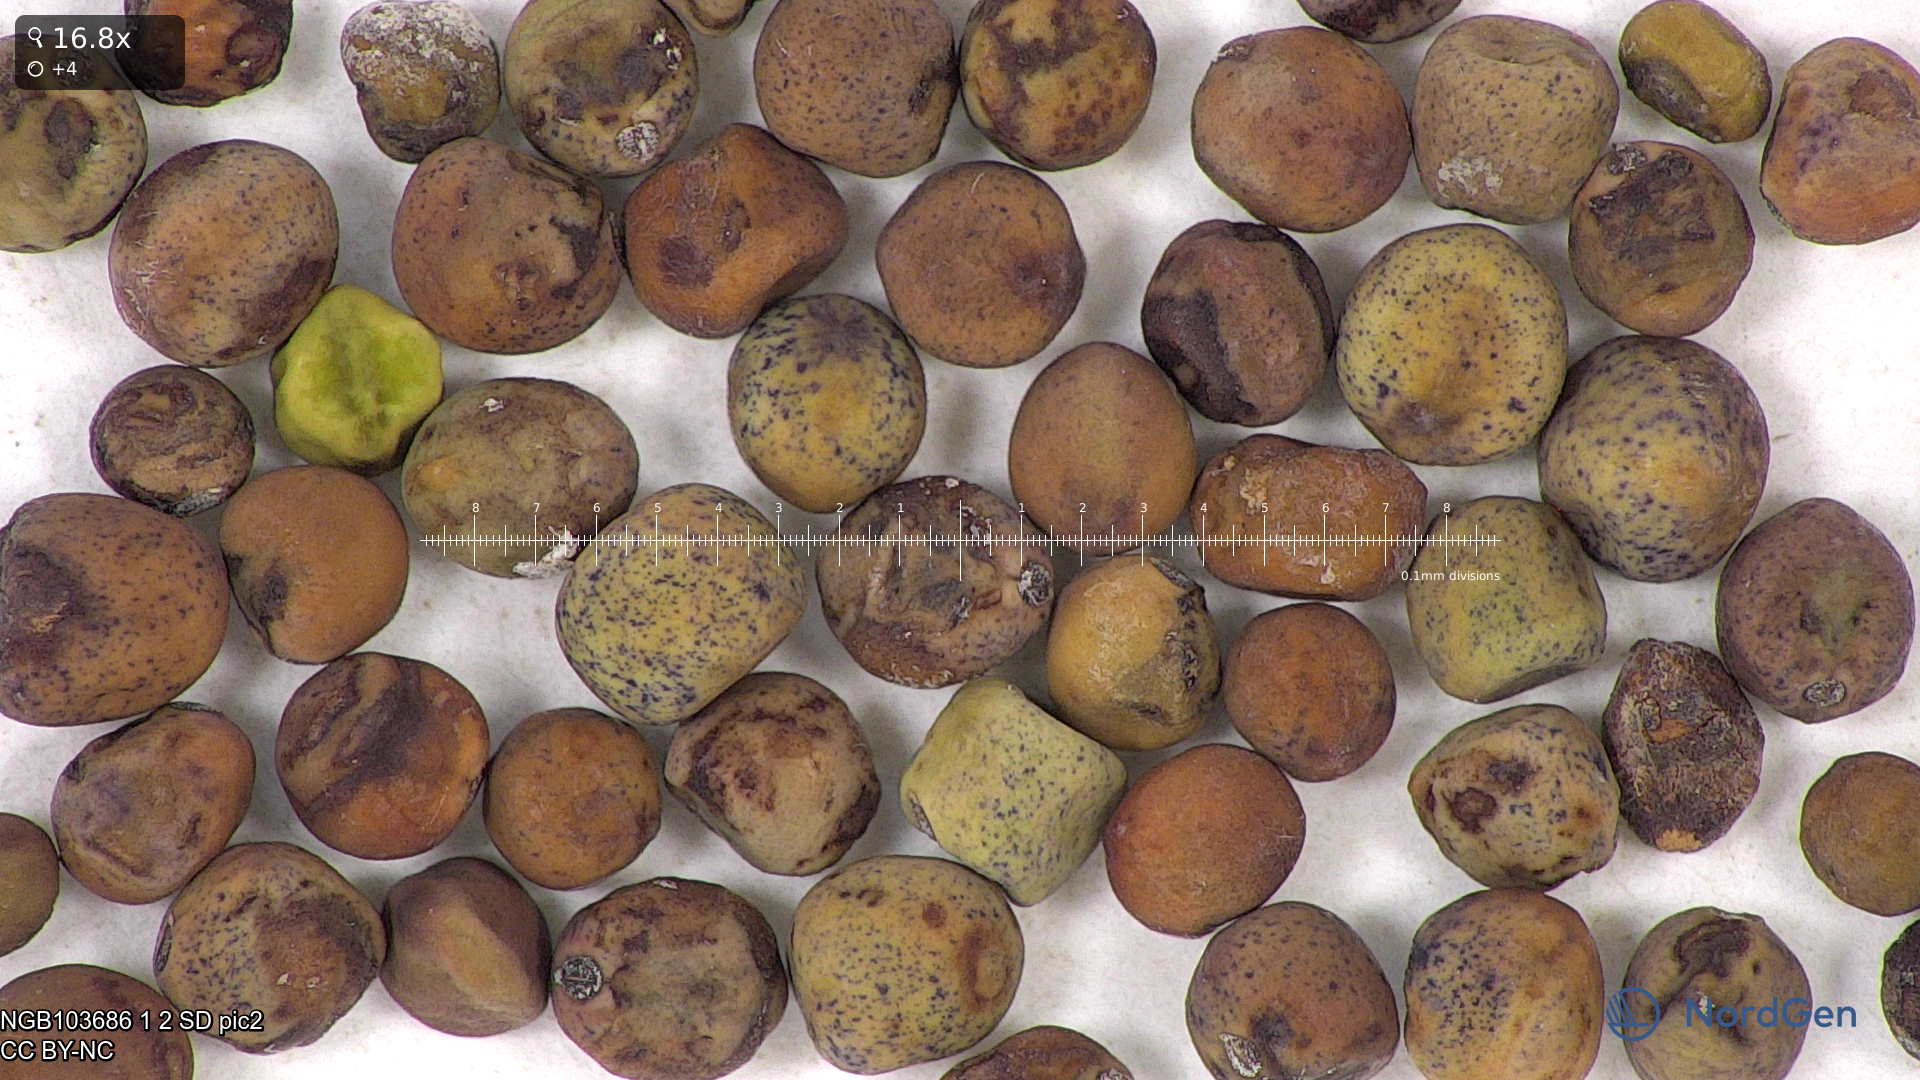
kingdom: Plantae
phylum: Tracheophyta
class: Magnoliopsida
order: Fabales
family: Fabaceae
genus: Lathyrus
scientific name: Lathyrus oleraceus
